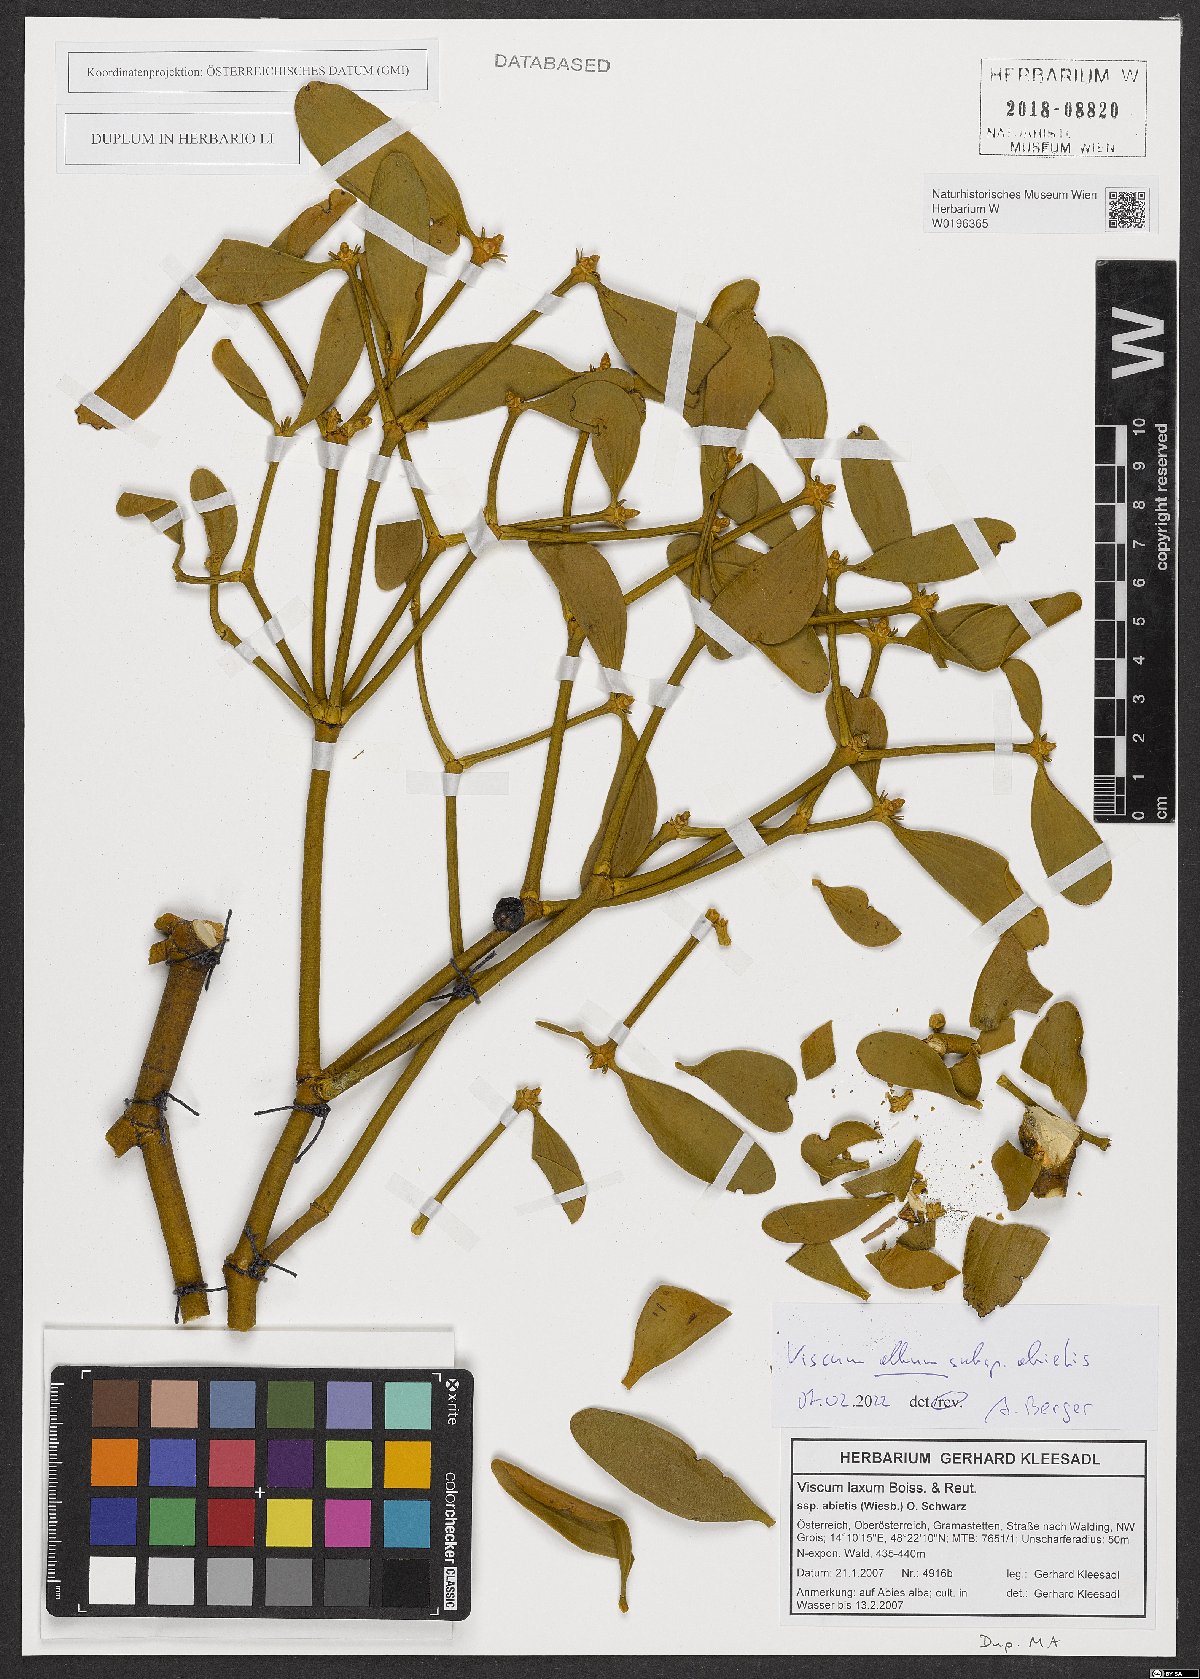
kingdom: Plantae
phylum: Tracheophyta
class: Magnoliopsida
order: Santalales
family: Viscaceae
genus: Viscum
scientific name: Viscum album
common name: Mistletoe
